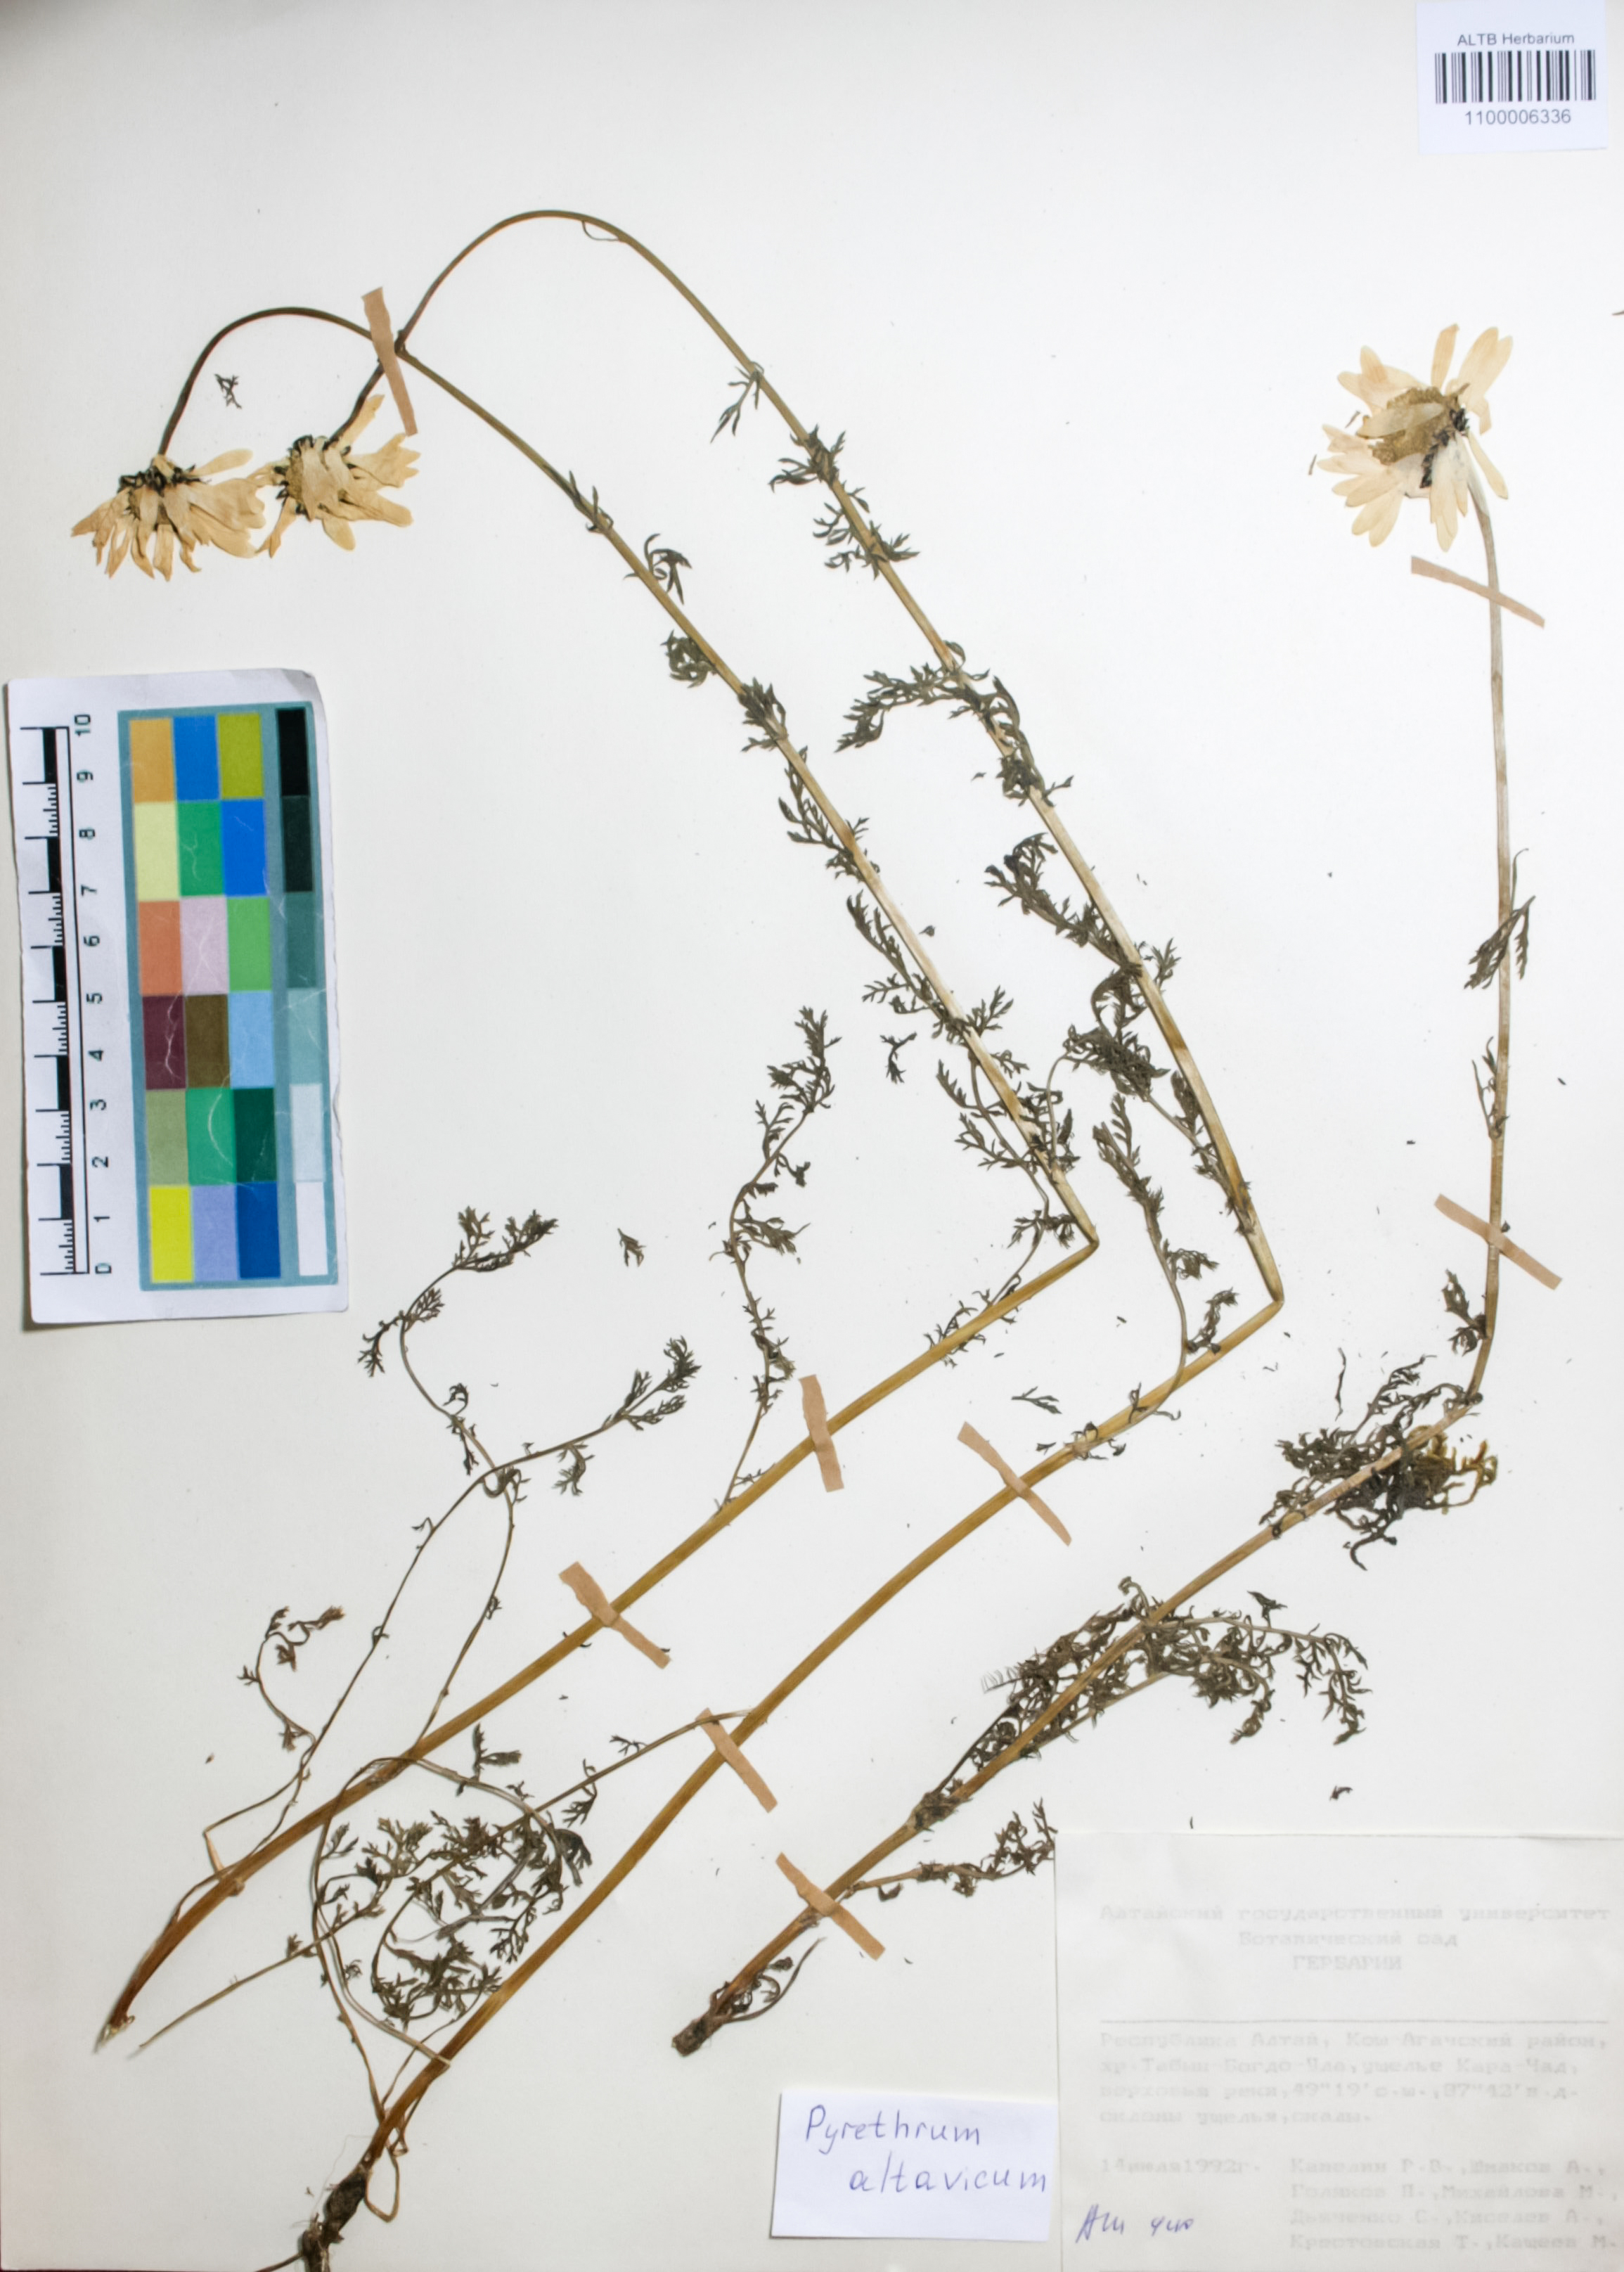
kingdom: Plantae
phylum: Tracheophyta
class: Magnoliopsida
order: Asterales
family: Asteraceae
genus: Tanacetum
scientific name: Tanacetum alatavicum
